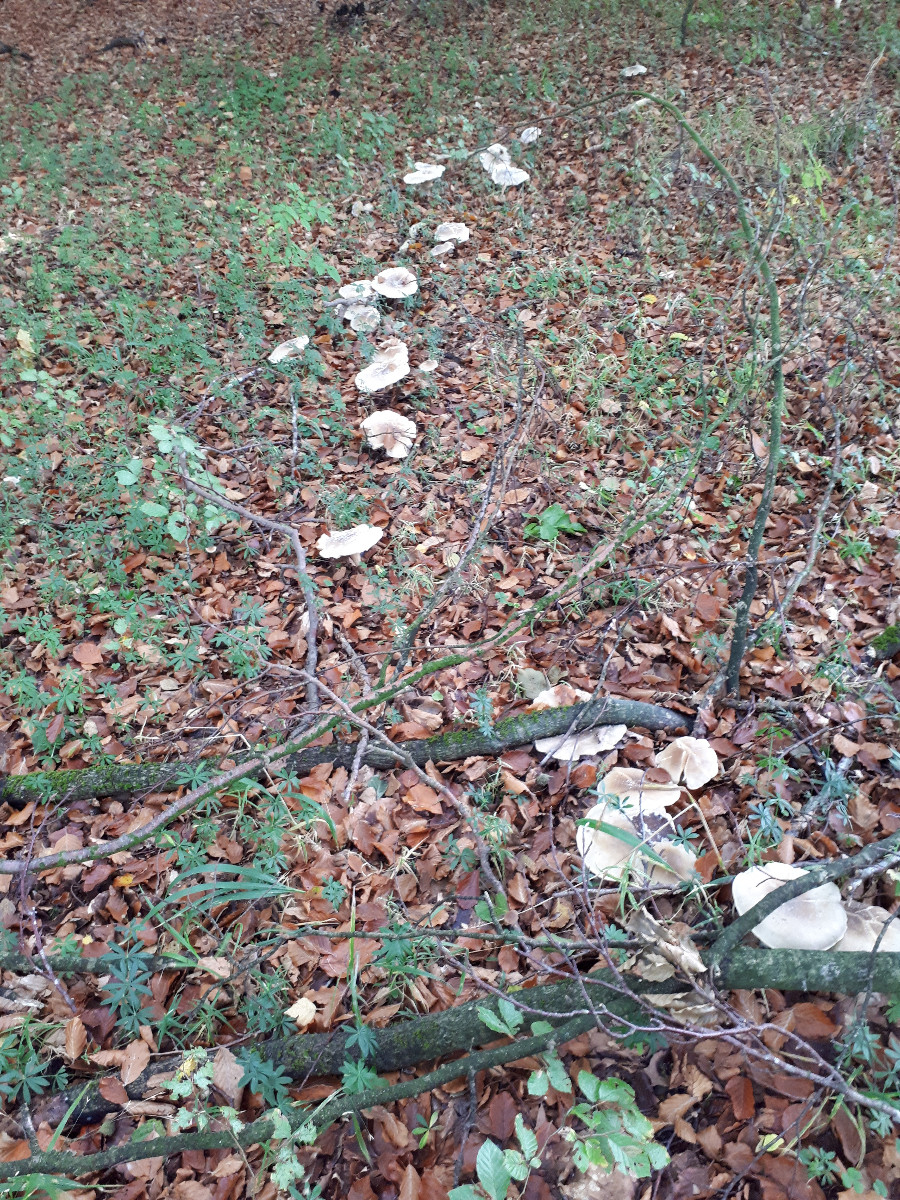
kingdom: Fungi
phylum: Basidiomycota
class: Agaricomycetes
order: Agaricales
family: Tricholomataceae
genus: Clitocybe
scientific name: Clitocybe nebularis
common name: tåge-tragthat
